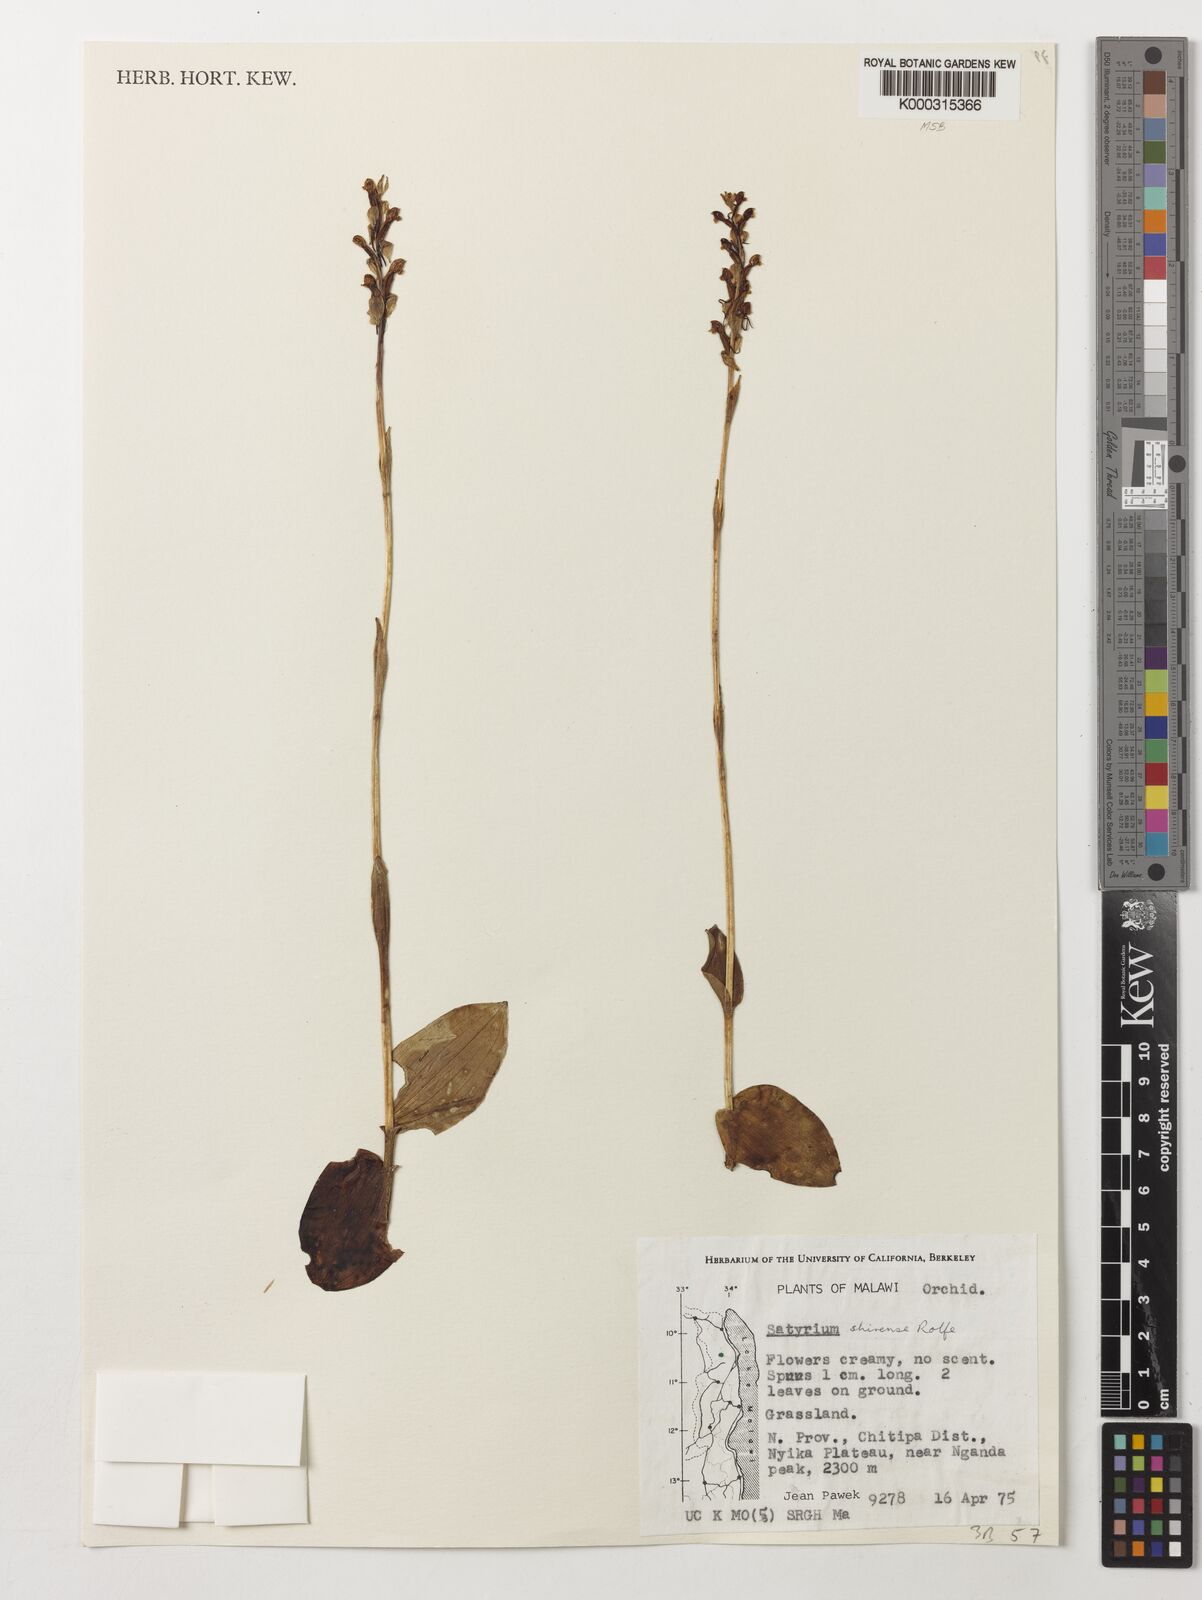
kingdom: Plantae
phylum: Tracheophyta
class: Liliopsida
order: Asparagales
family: Orchidaceae
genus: Satyrium
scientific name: Satyrium shirense
